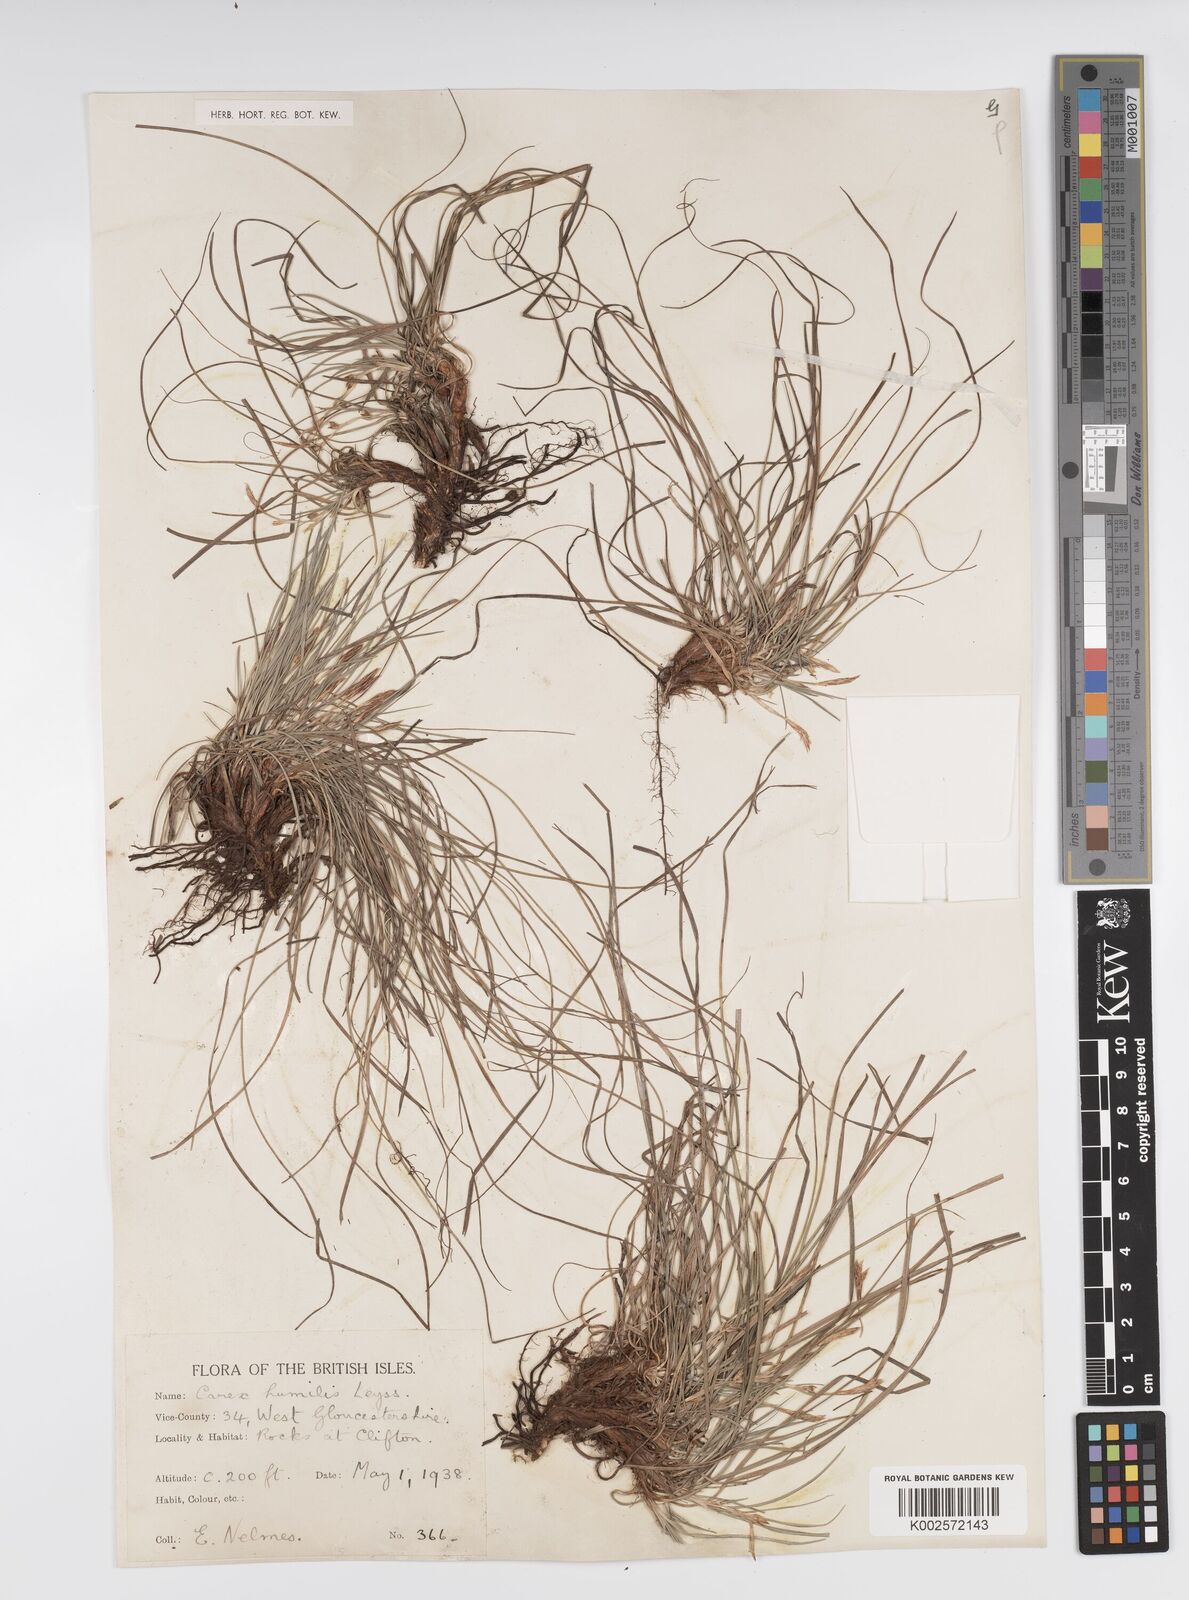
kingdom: Plantae
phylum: Tracheophyta
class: Liliopsida
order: Poales
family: Cyperaceae
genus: Carex
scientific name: Carex humilis
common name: Dwarf sedge
